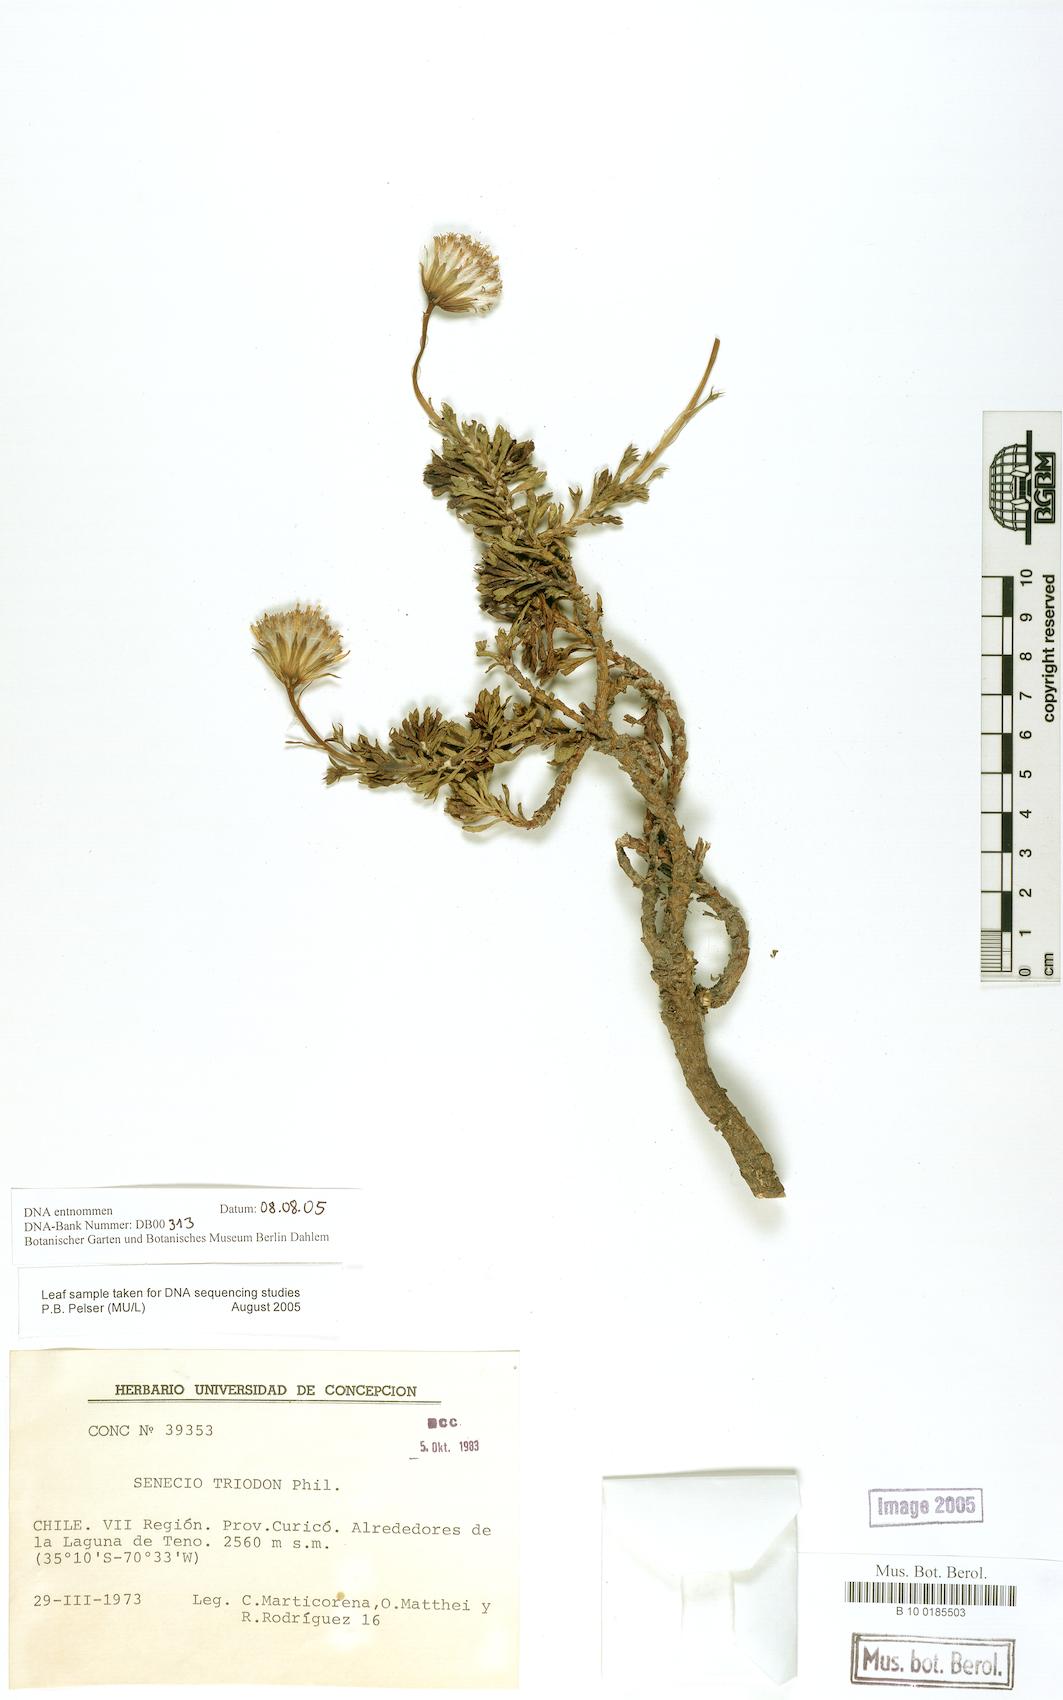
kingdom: Plantae
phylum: Tracheophyta
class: Magnoliopsida
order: Asterales
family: Asteraceae
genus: Senecio
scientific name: Senecio triodon
